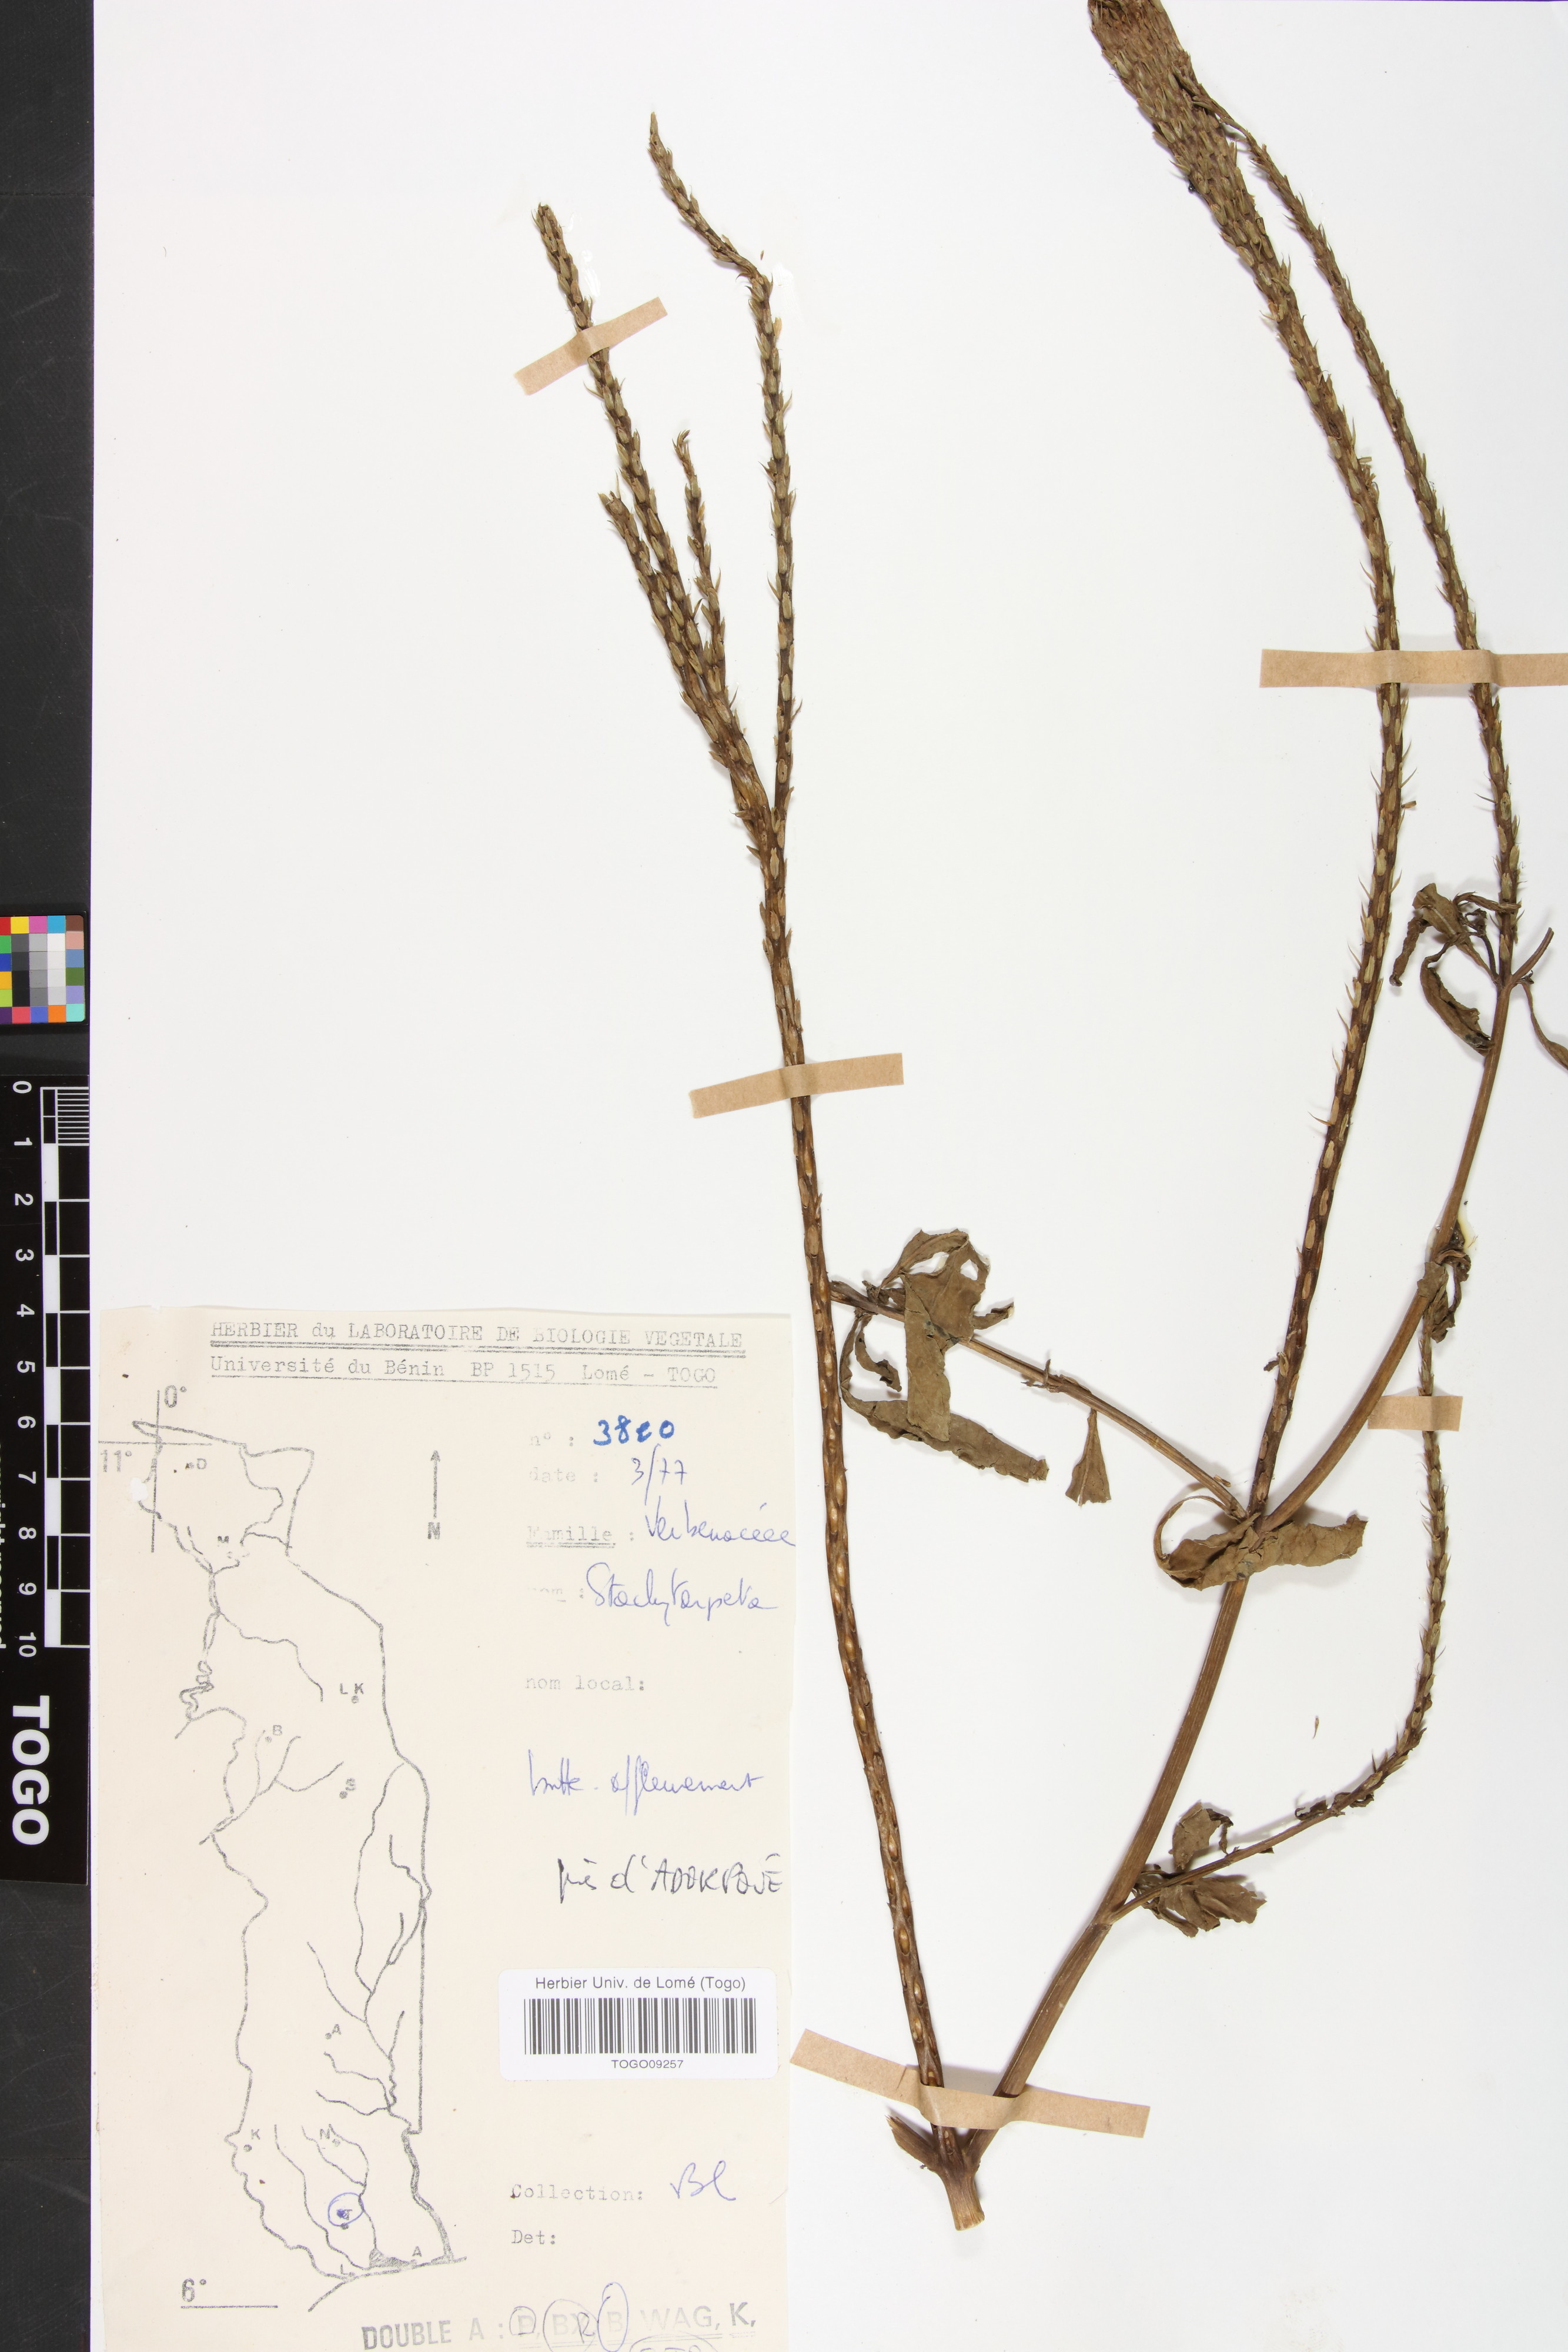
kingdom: Plantae
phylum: Tracheophyta
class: Magnoliopsida
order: Lamiales
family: Verbenaceae
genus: Stachytarpheta
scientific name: Stachytarpheta indica
